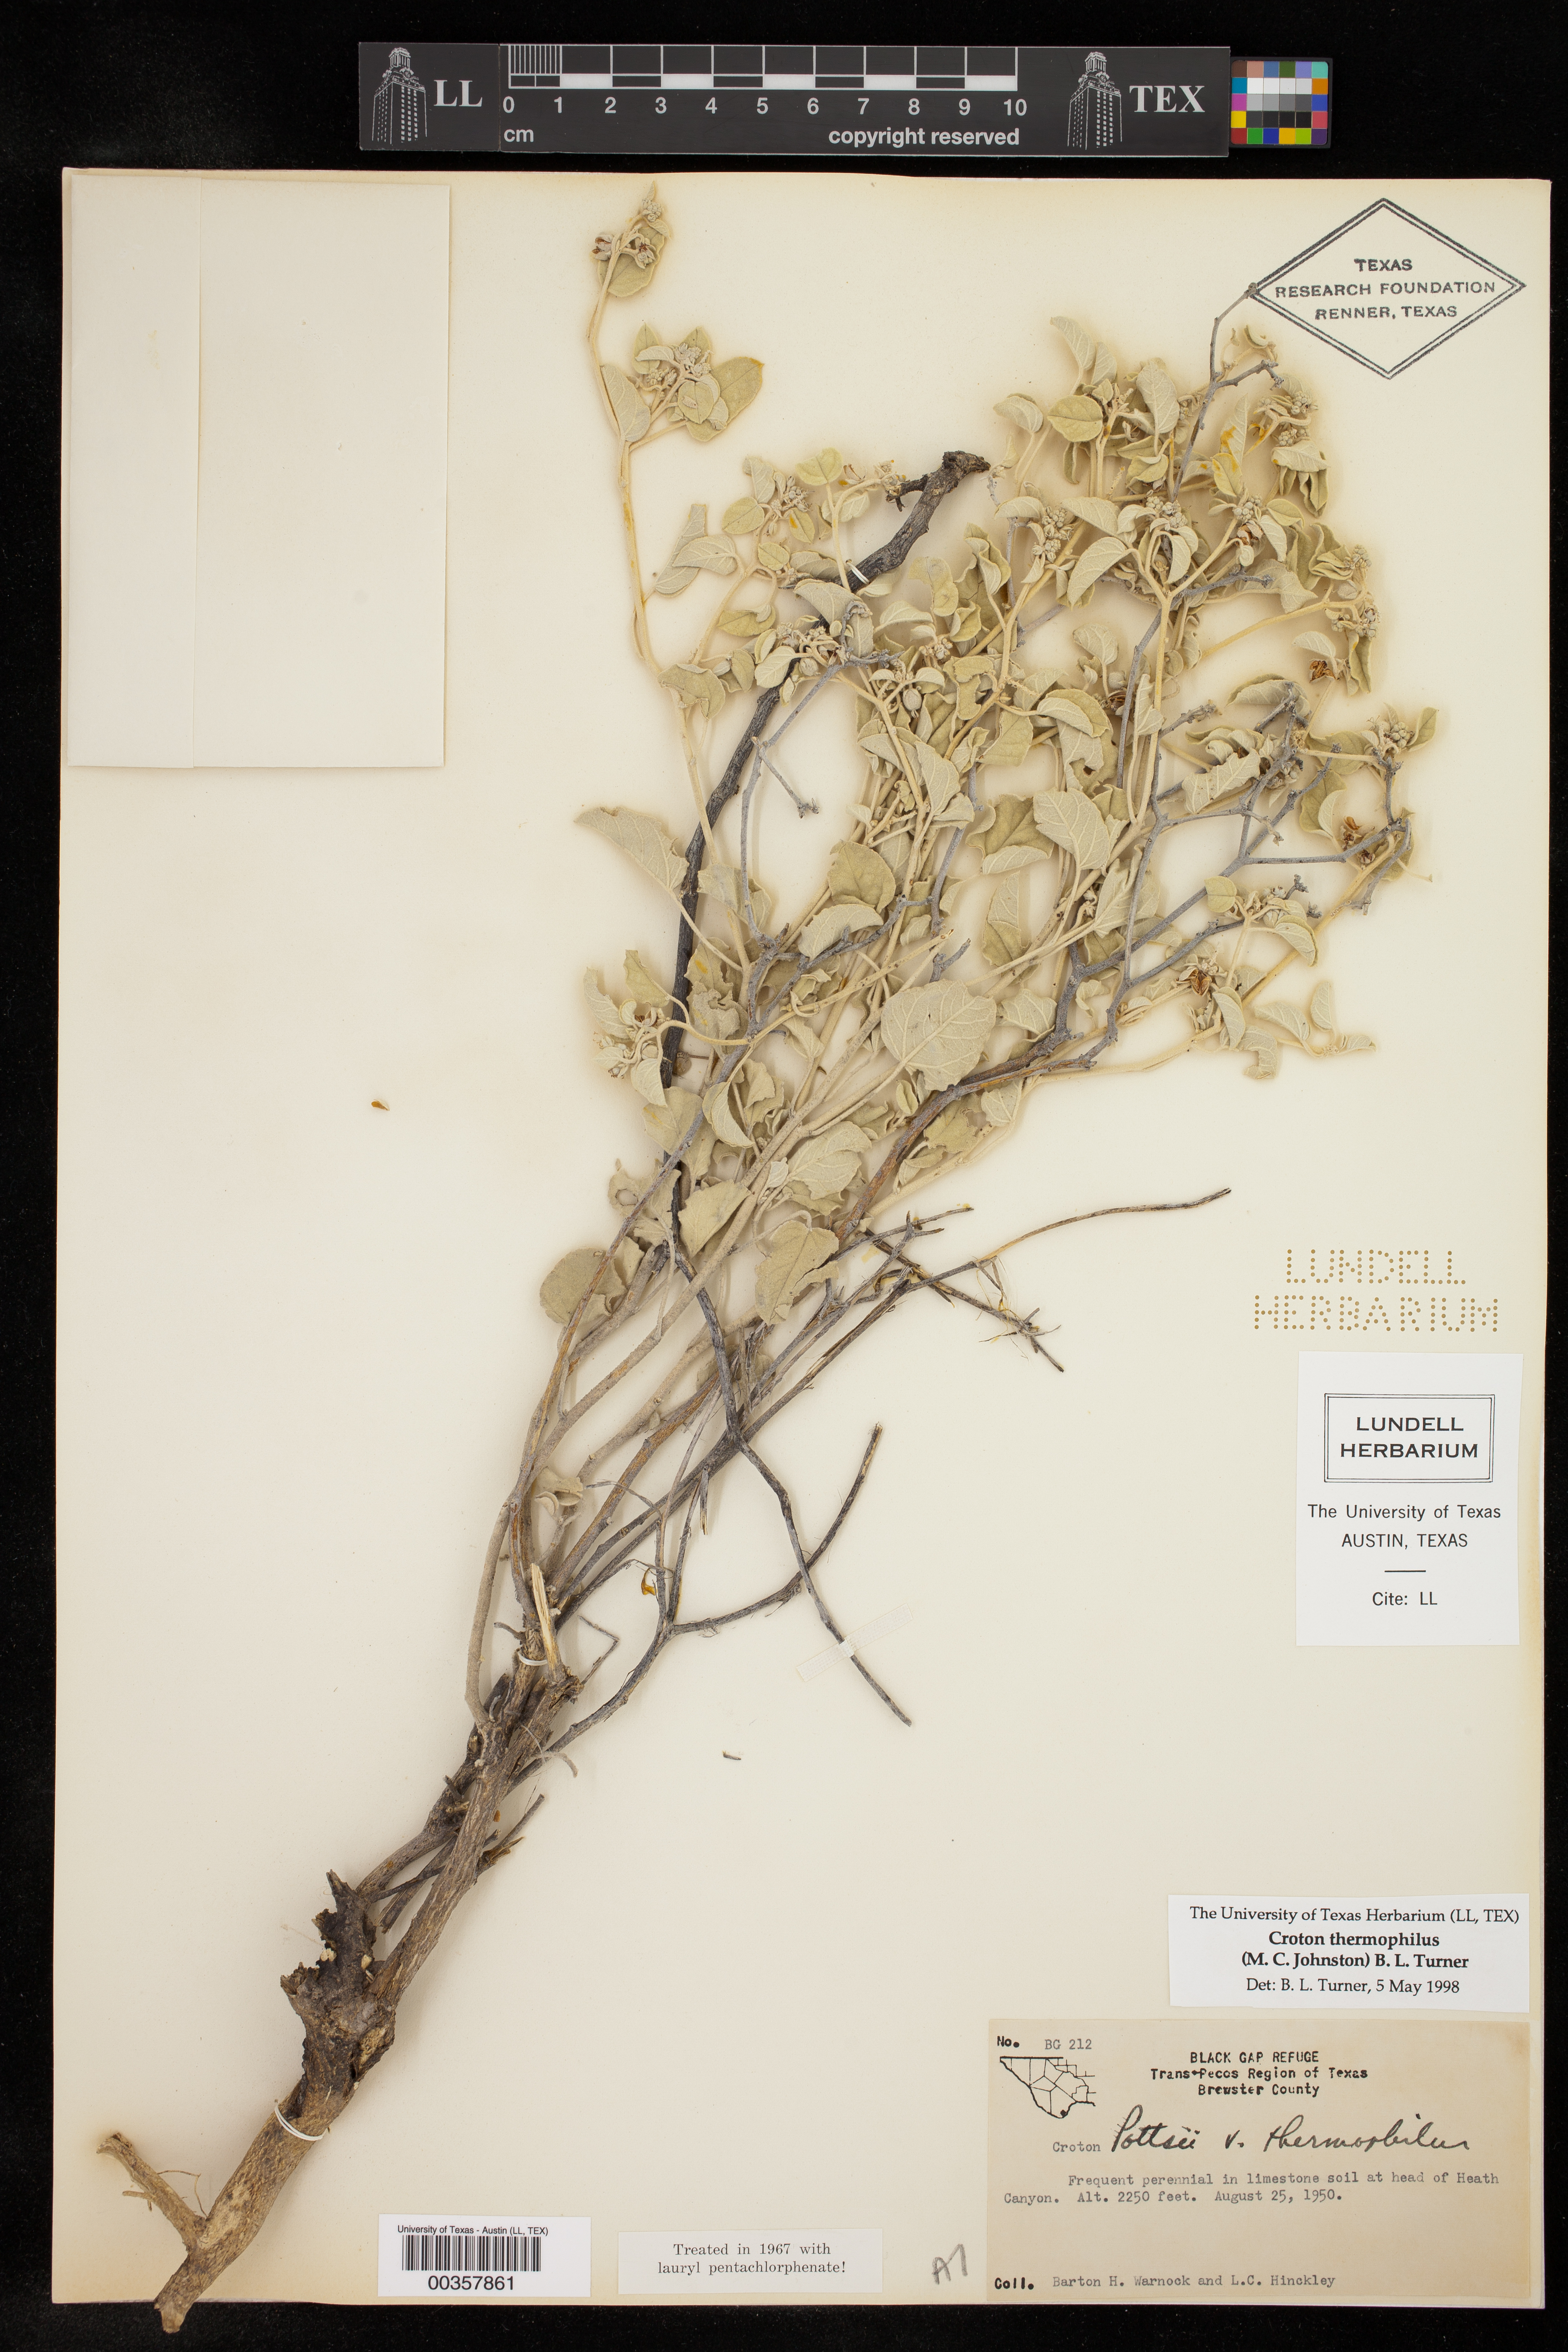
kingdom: Plantae
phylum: Tracheophyta
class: Magnoliopsida
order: Malpighiales
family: Euphorbiaceae
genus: Croton
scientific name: Croton pottsii
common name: Leatherweed
